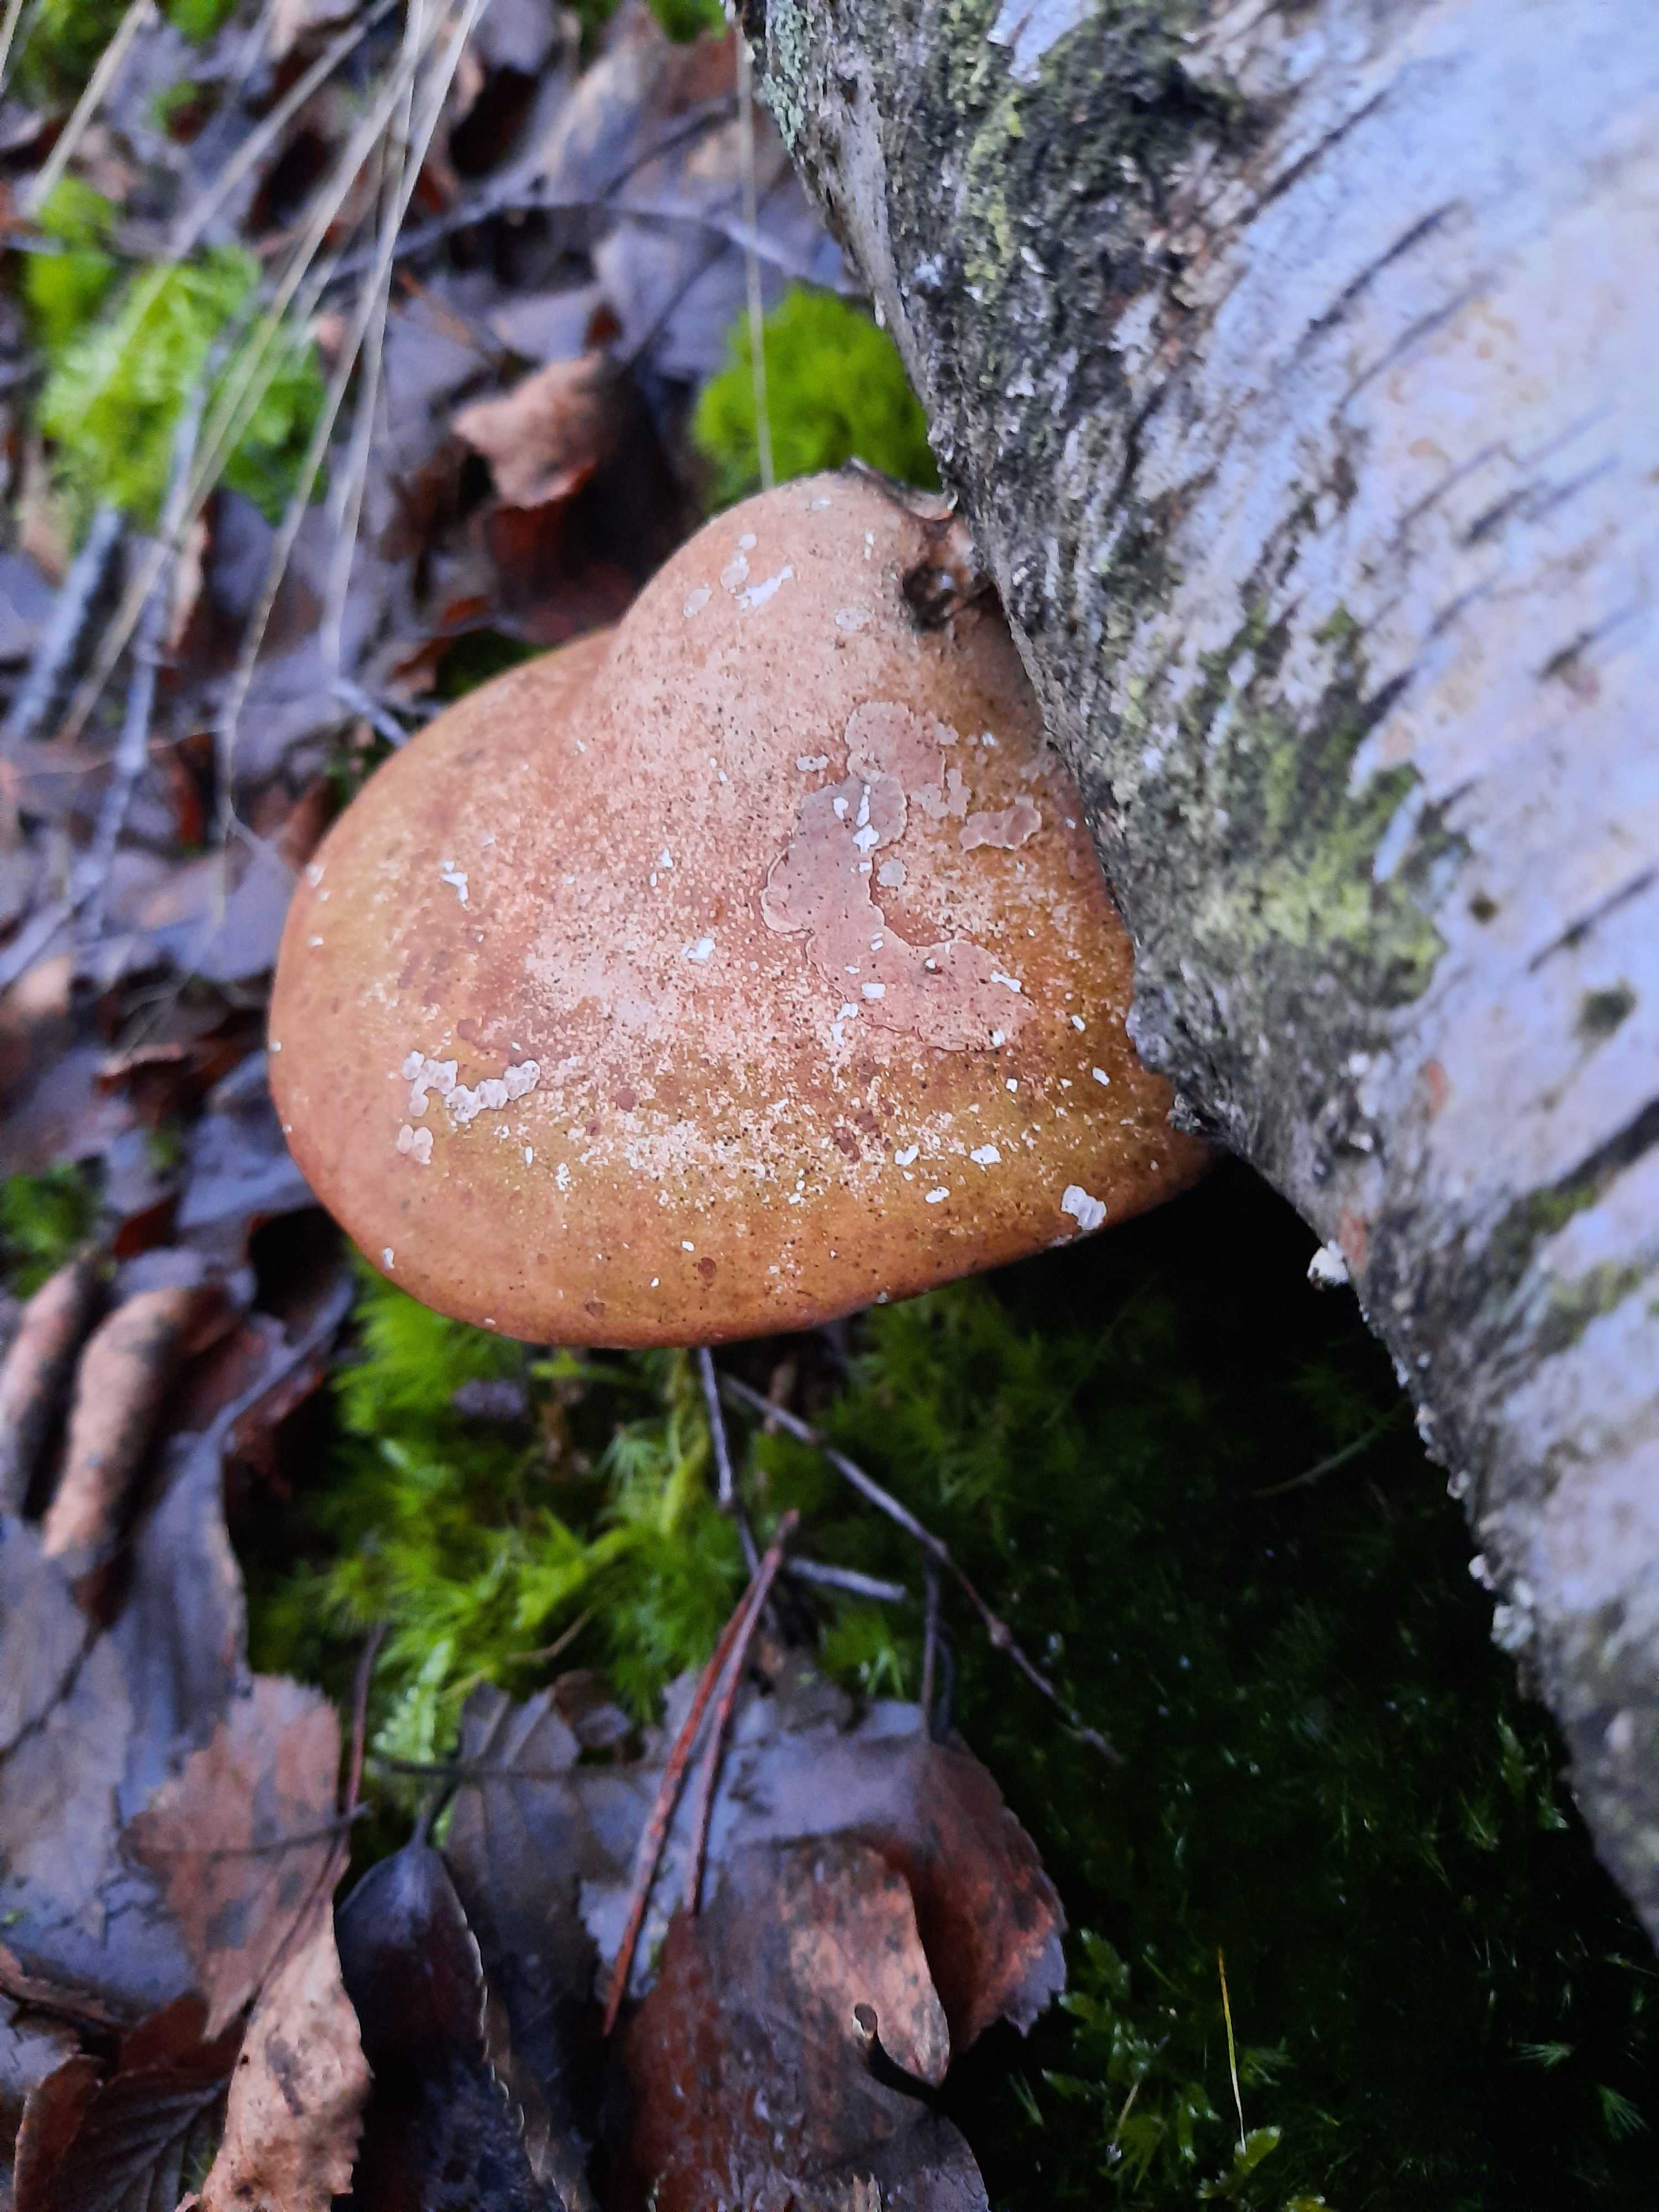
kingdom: Fungi
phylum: Basidiomycota
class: Agaricomycetes
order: Polyporales
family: Fomitopsidaceae
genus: Fomitopsis
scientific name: Fomitopsis betulina
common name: birkeporesvamp
